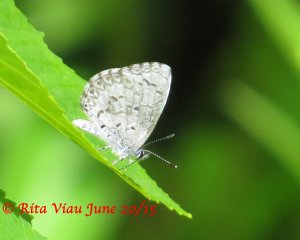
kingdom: Animalia
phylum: Arthropoda
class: Insecta
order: Lepidoptera
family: Lycaenidae
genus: Celastrina
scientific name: Celastrina lucia
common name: Northern Spring Azure
